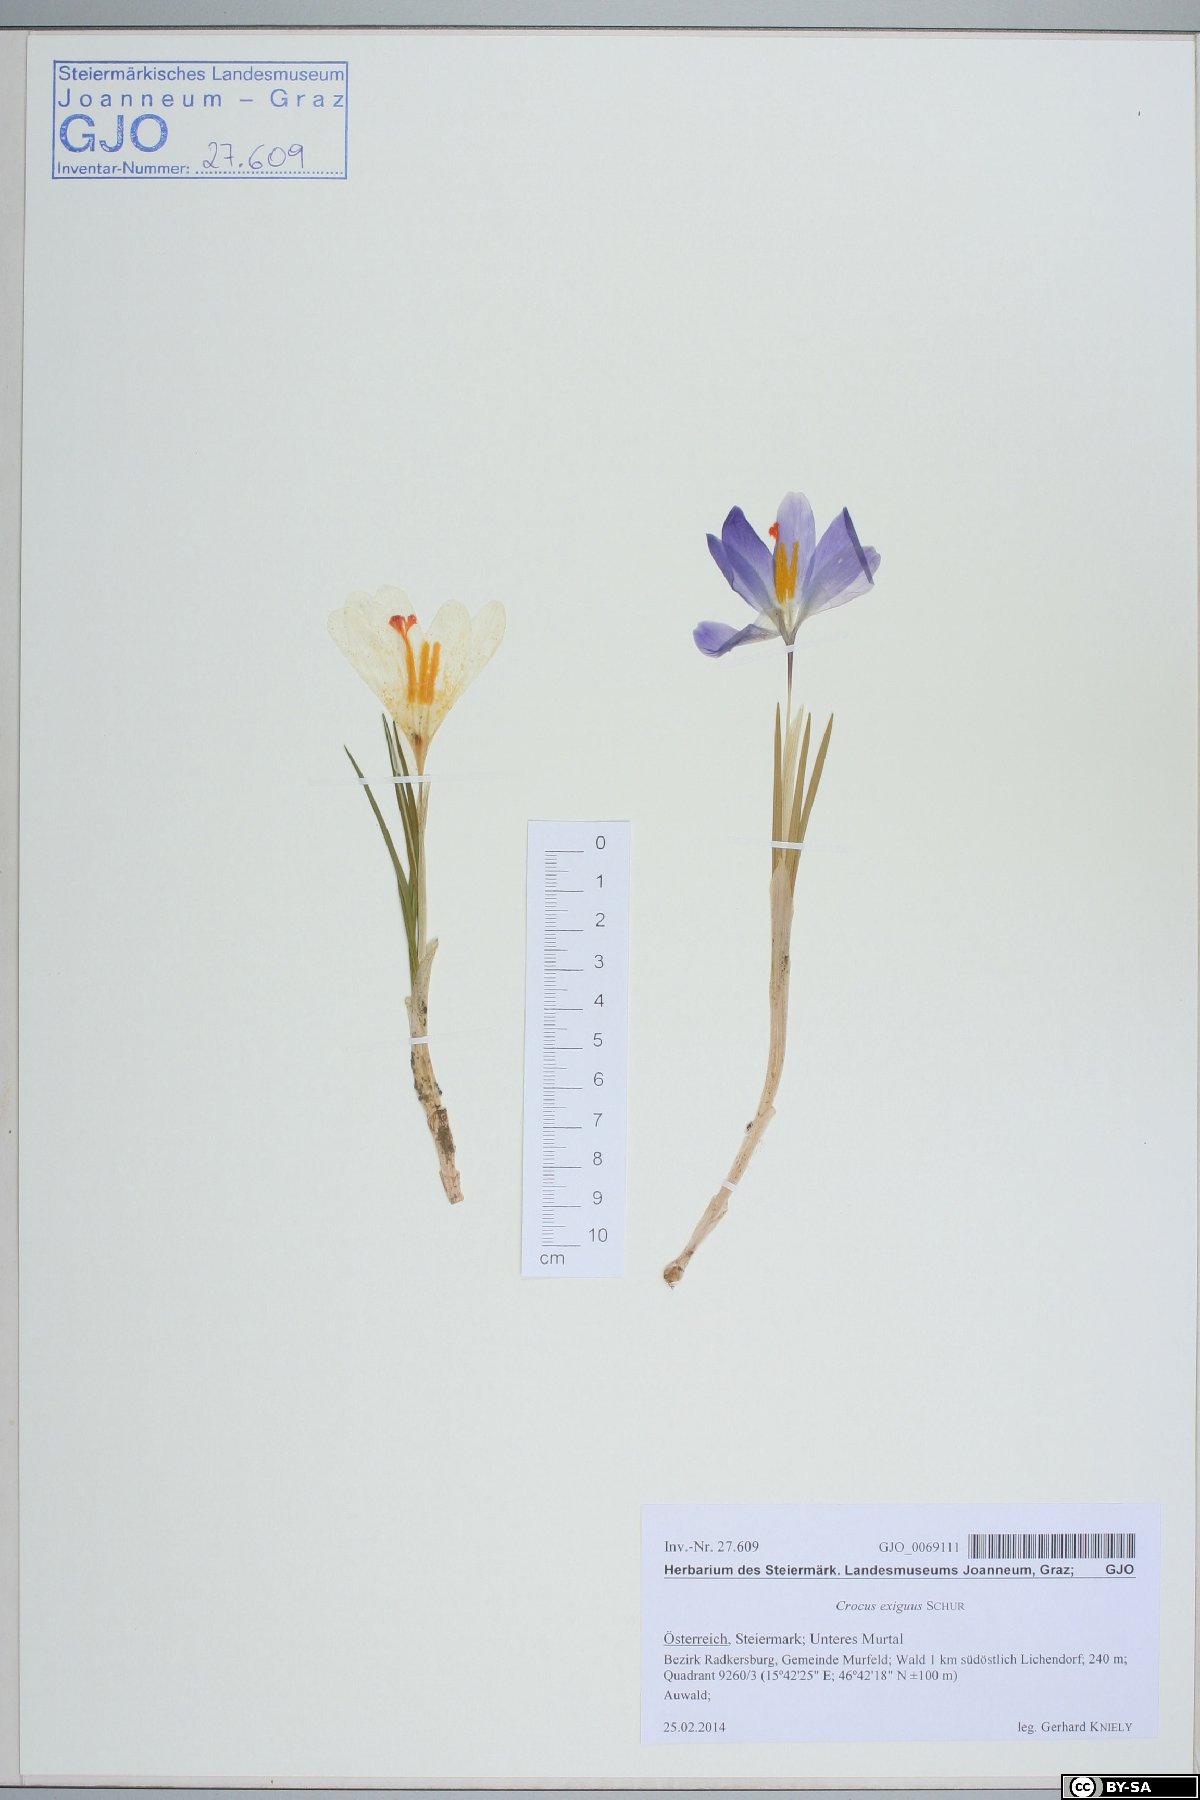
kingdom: Plantae
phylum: Tracheophyta
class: Liliopsida
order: Asparagales
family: Iridaceae
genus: Crocus
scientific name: Crocus heuffelianus
